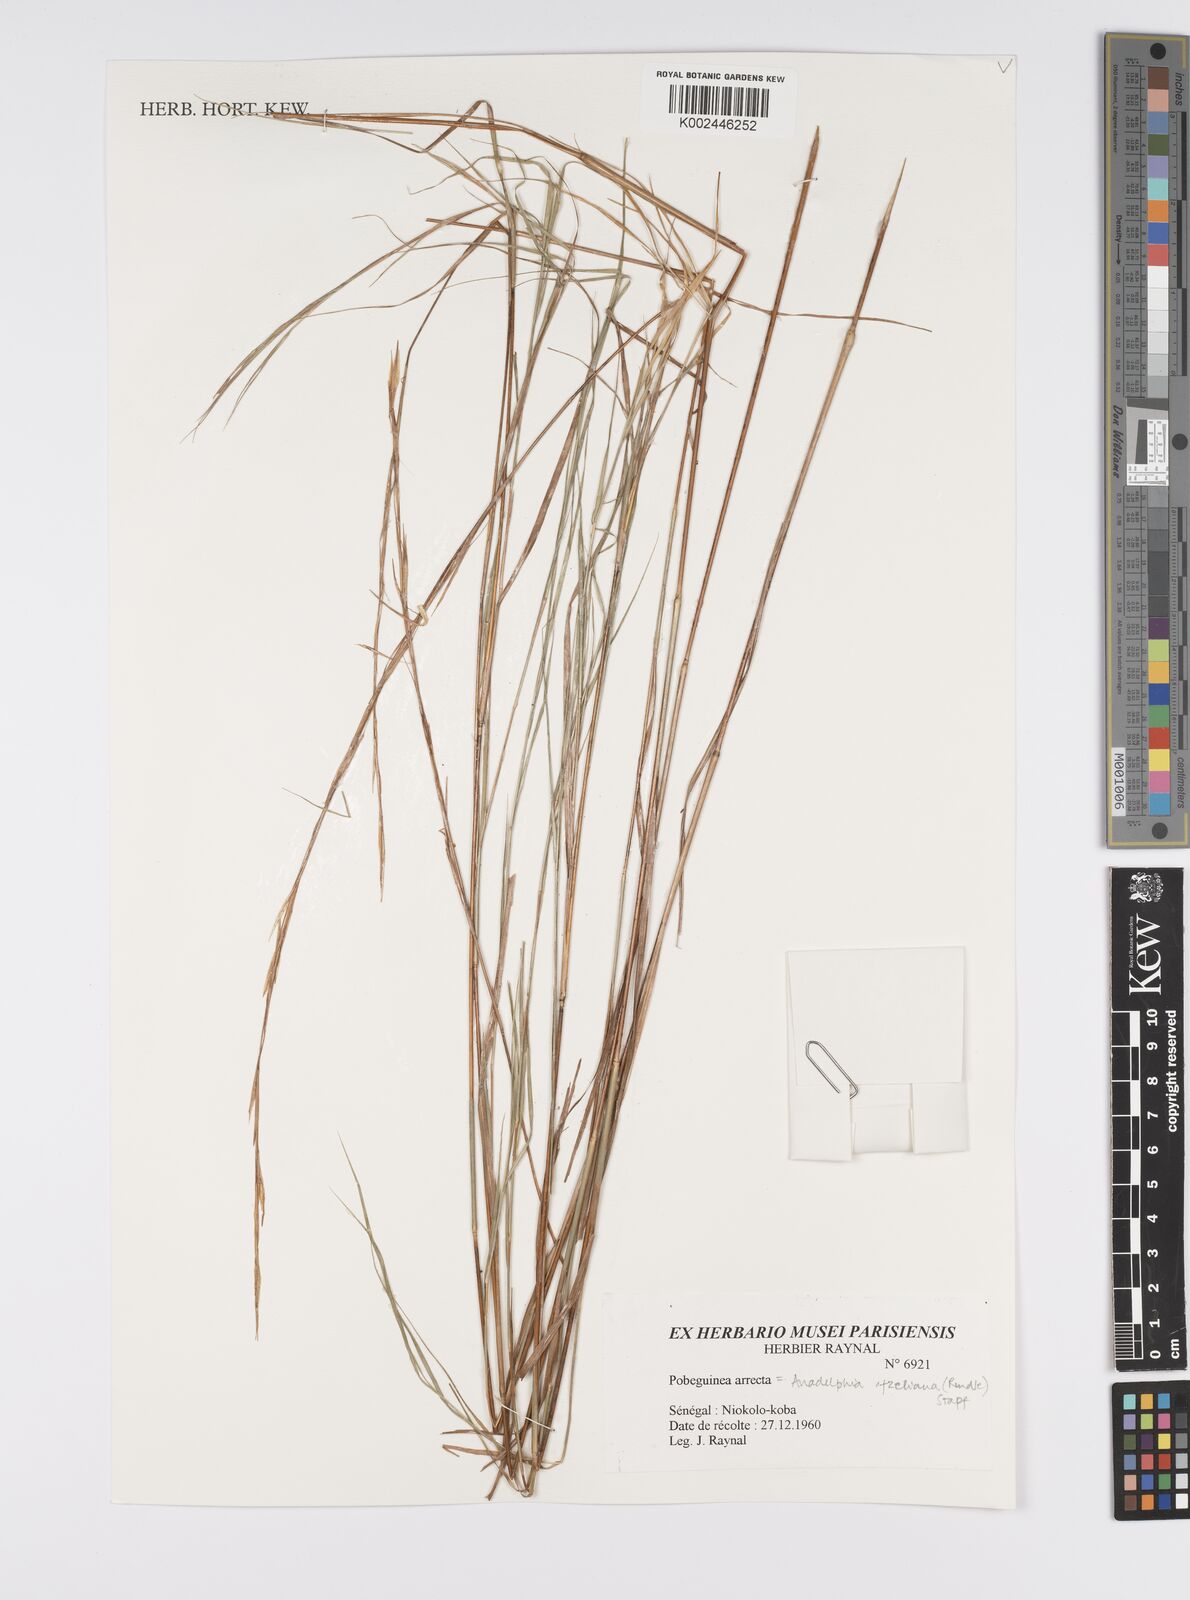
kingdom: Plantae
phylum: Tracheophyta
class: Liliopsida
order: Poales
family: Poaceae
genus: Anadelphia
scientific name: Anadelphia afzeliana
